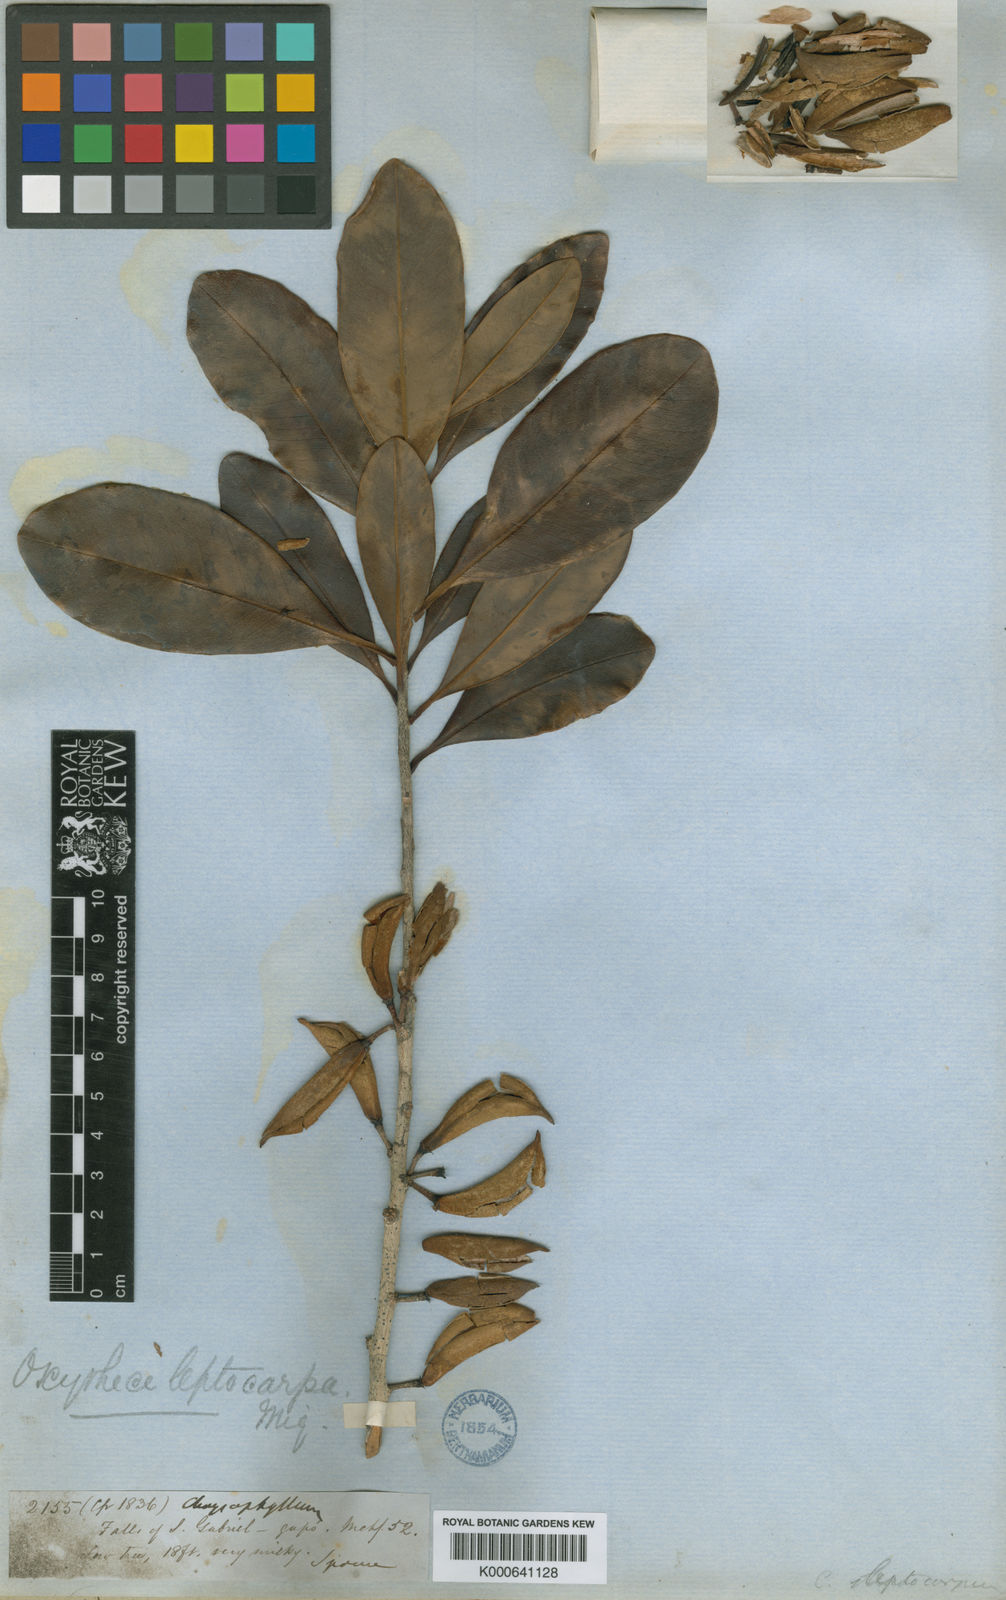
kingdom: Plantae
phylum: Tracheophyta
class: Magnoliopsida
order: Ericales
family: Sapotaceae
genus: Pouteria
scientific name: Pouteria elegans
